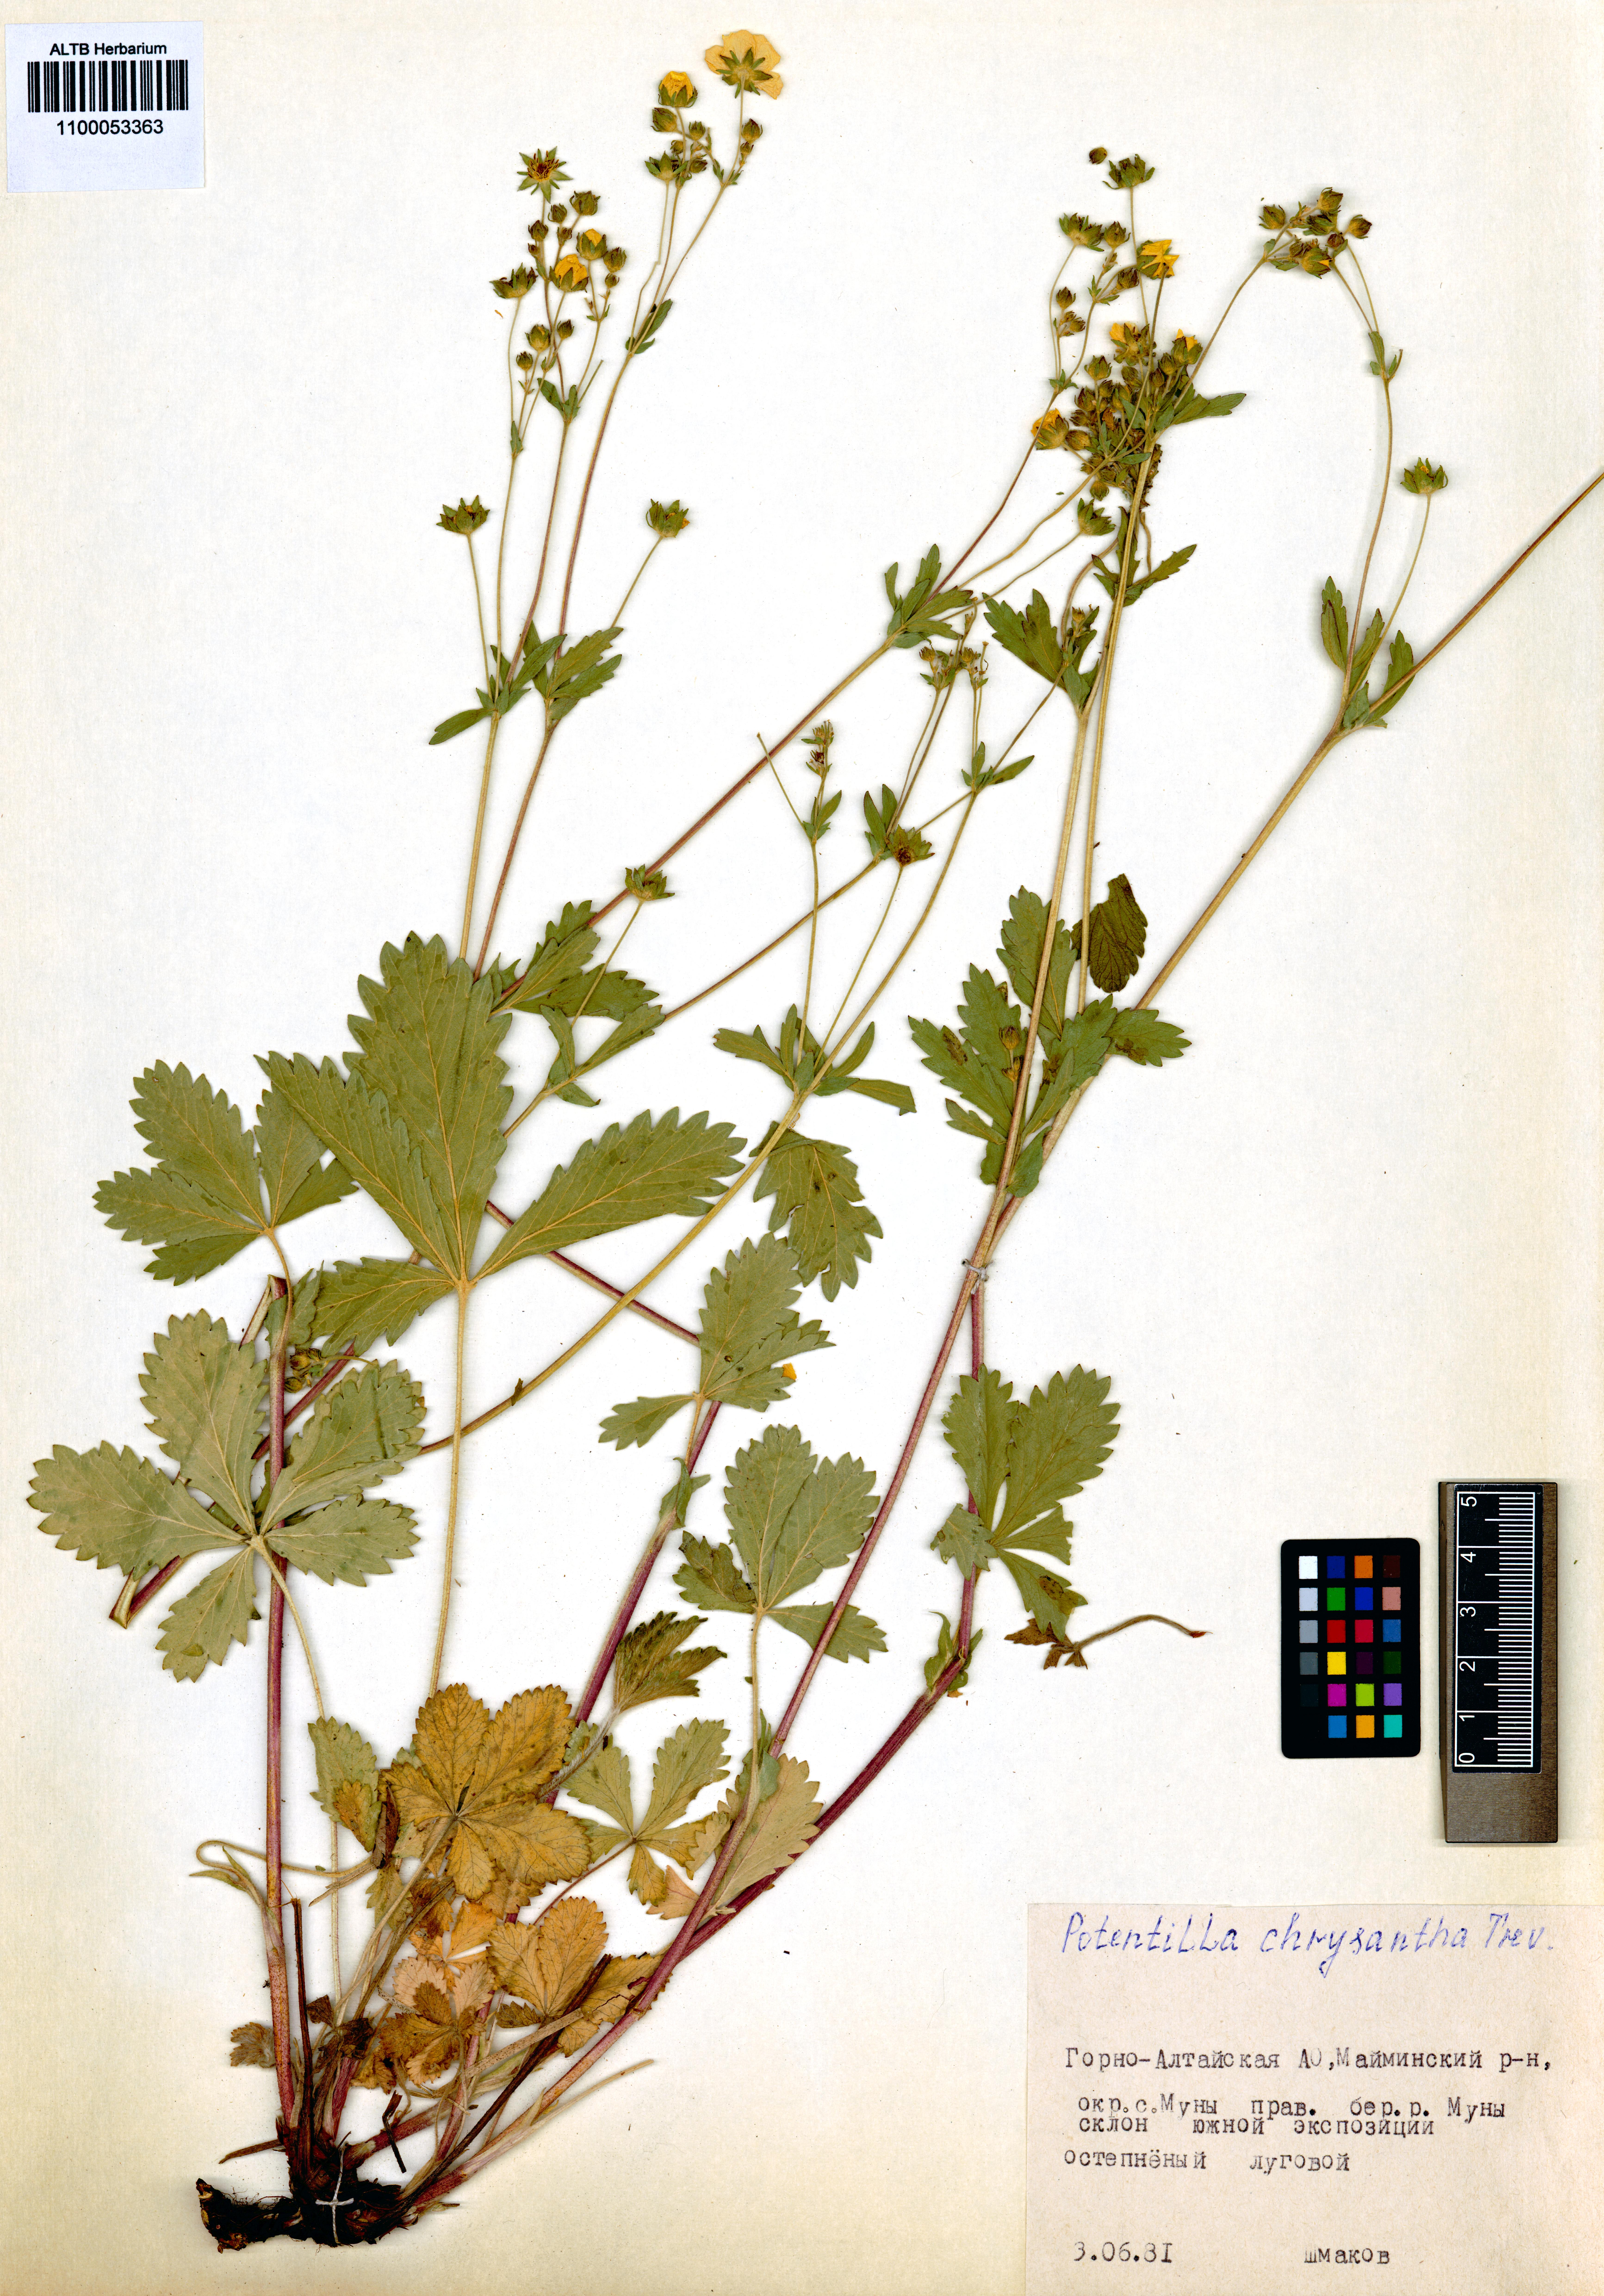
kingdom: Plantae
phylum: Tracheophyta
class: Magnoliopsida
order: Rosales
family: Rosaceae
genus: Potentilla
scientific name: Potentilla chrysantha
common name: Thuringian cinquefoil
